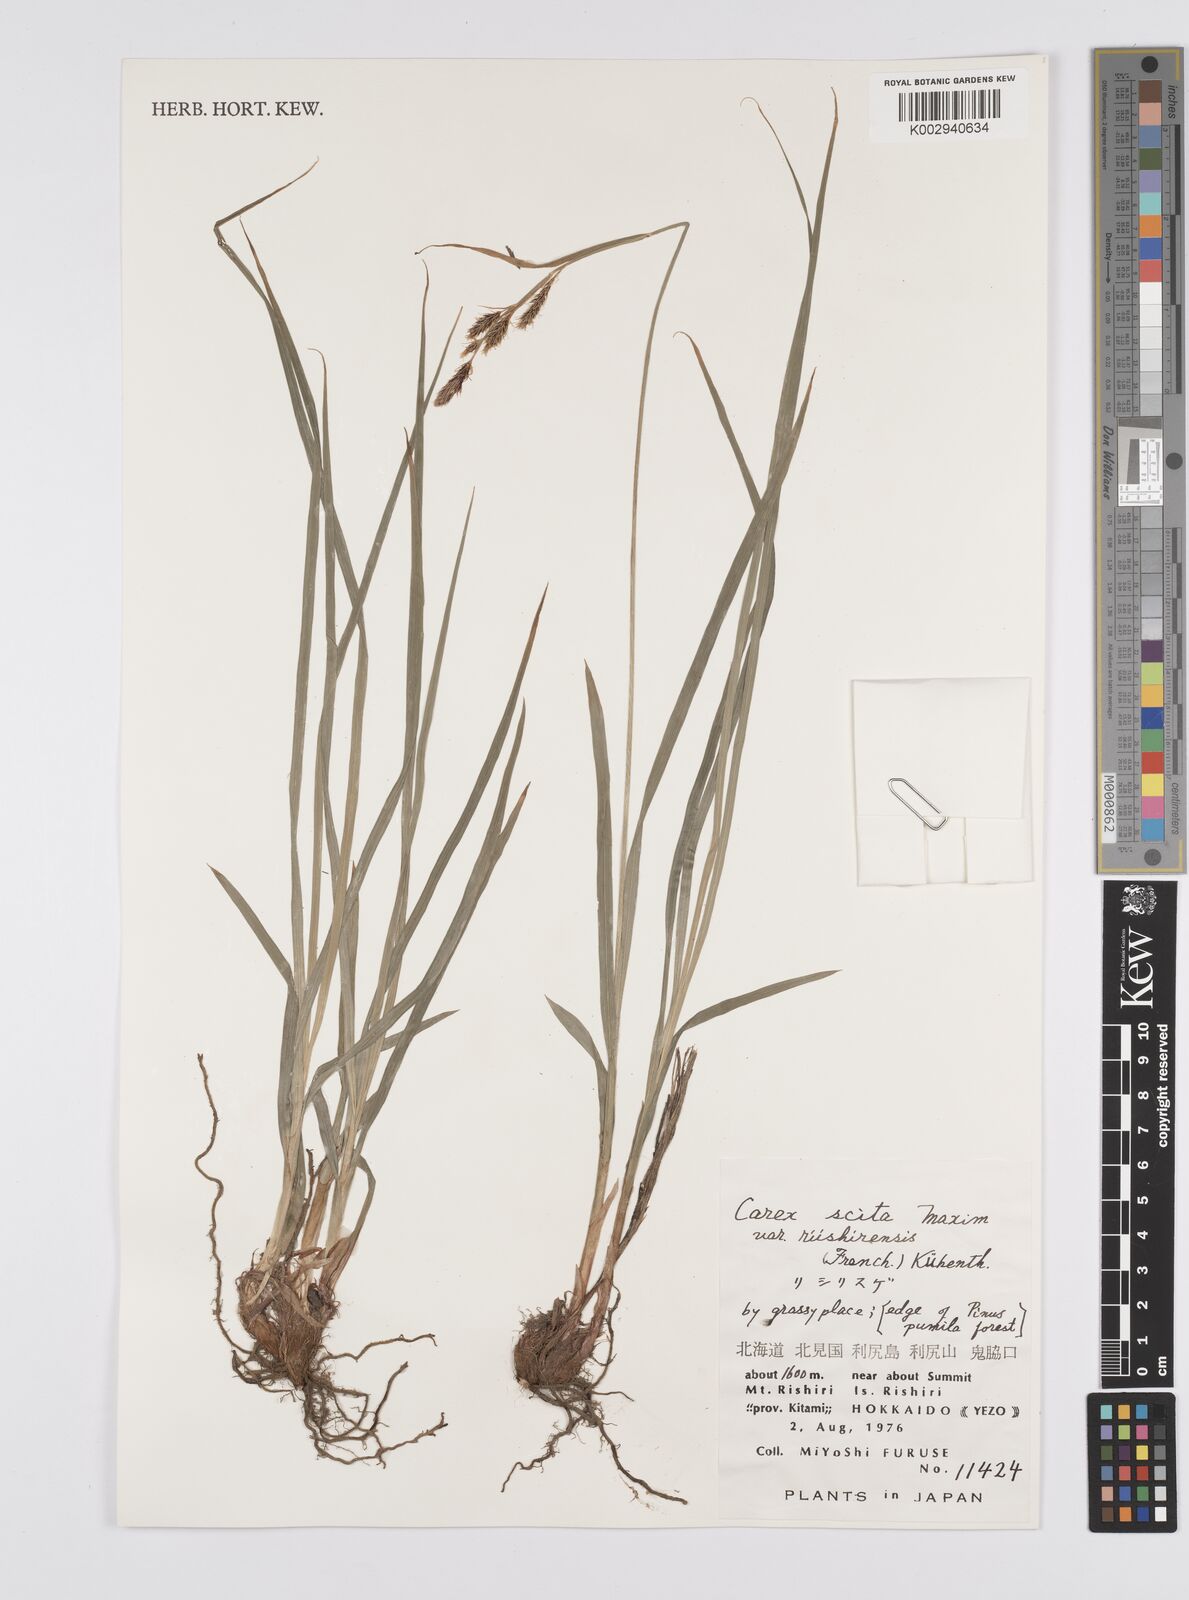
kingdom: Plantae
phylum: Tracheophyta
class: Liliopsida
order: Poales
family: Cyperaceae
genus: Carex
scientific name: Carex scita
